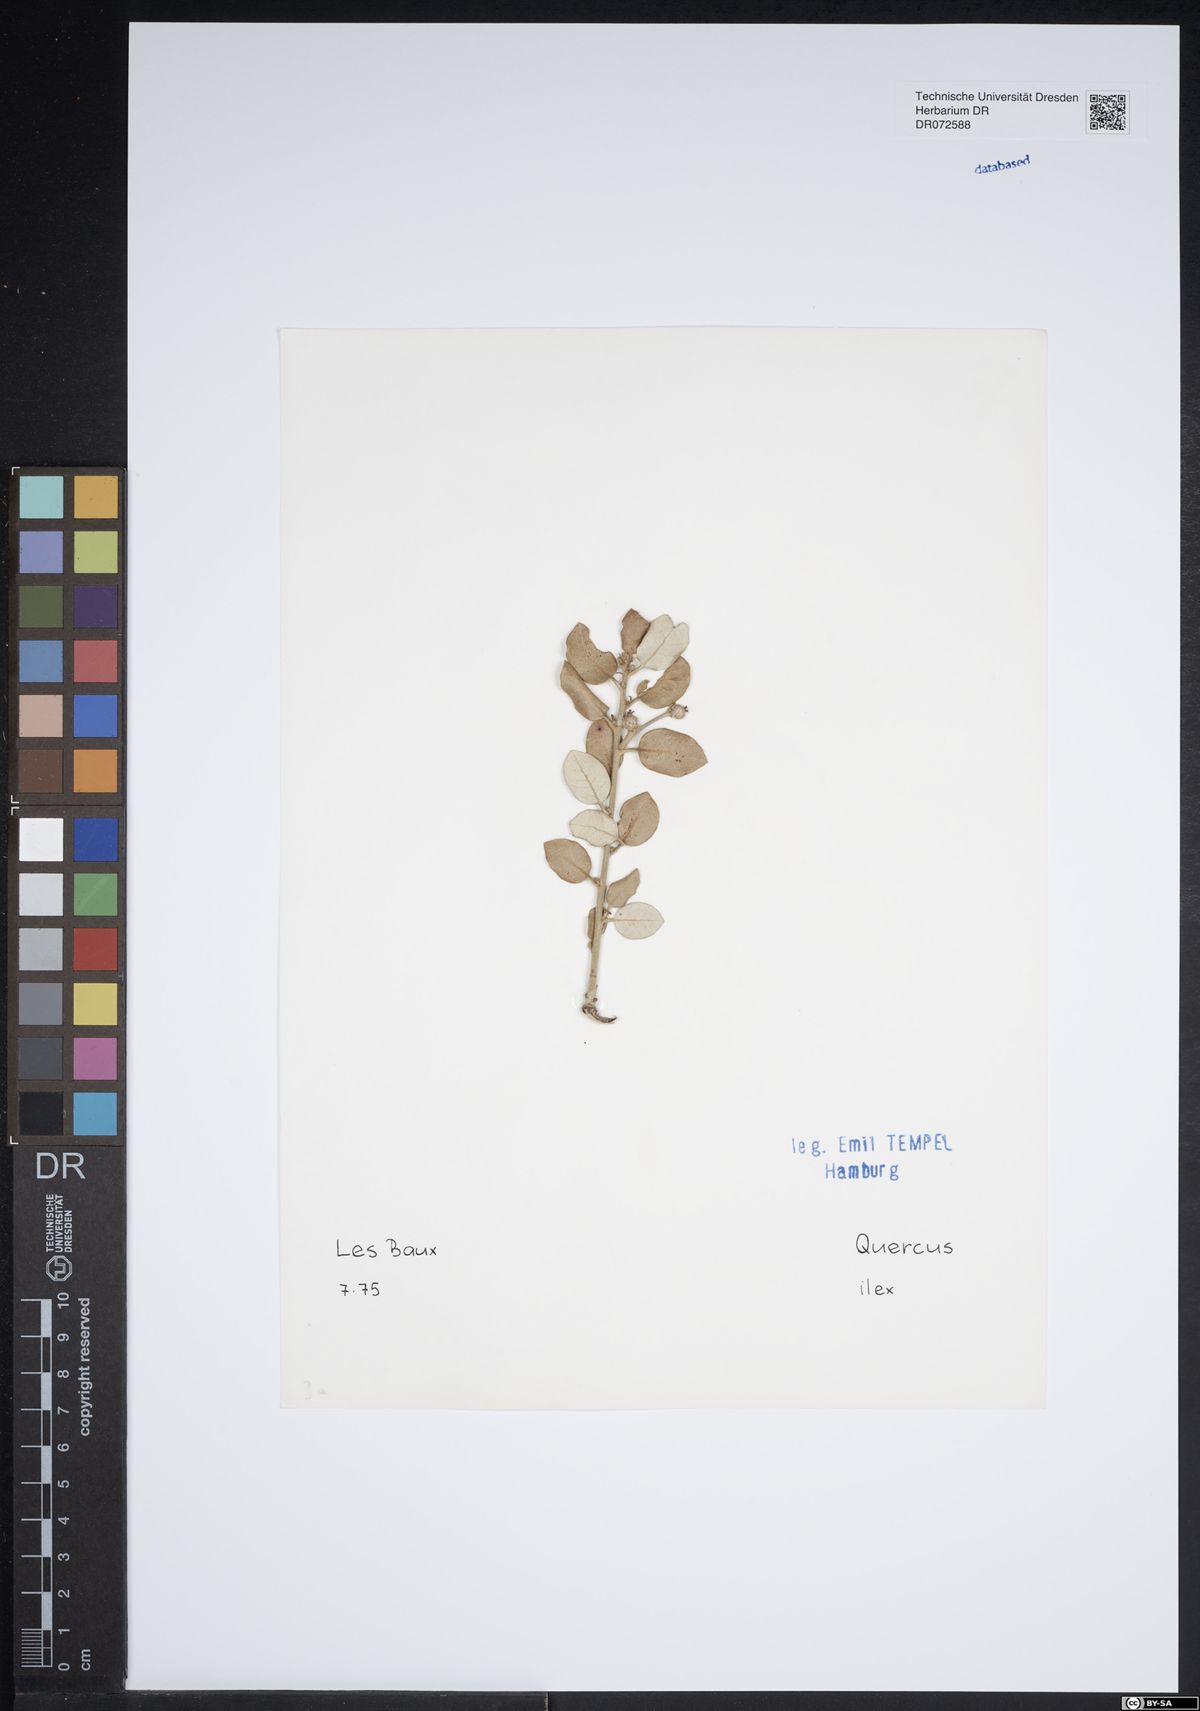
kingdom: Plantae
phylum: Tracheophyta
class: Magnoliopsida
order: Fagales
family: Fagaceae
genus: Quercus
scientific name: Quercus ilex
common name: Evergreen oak
